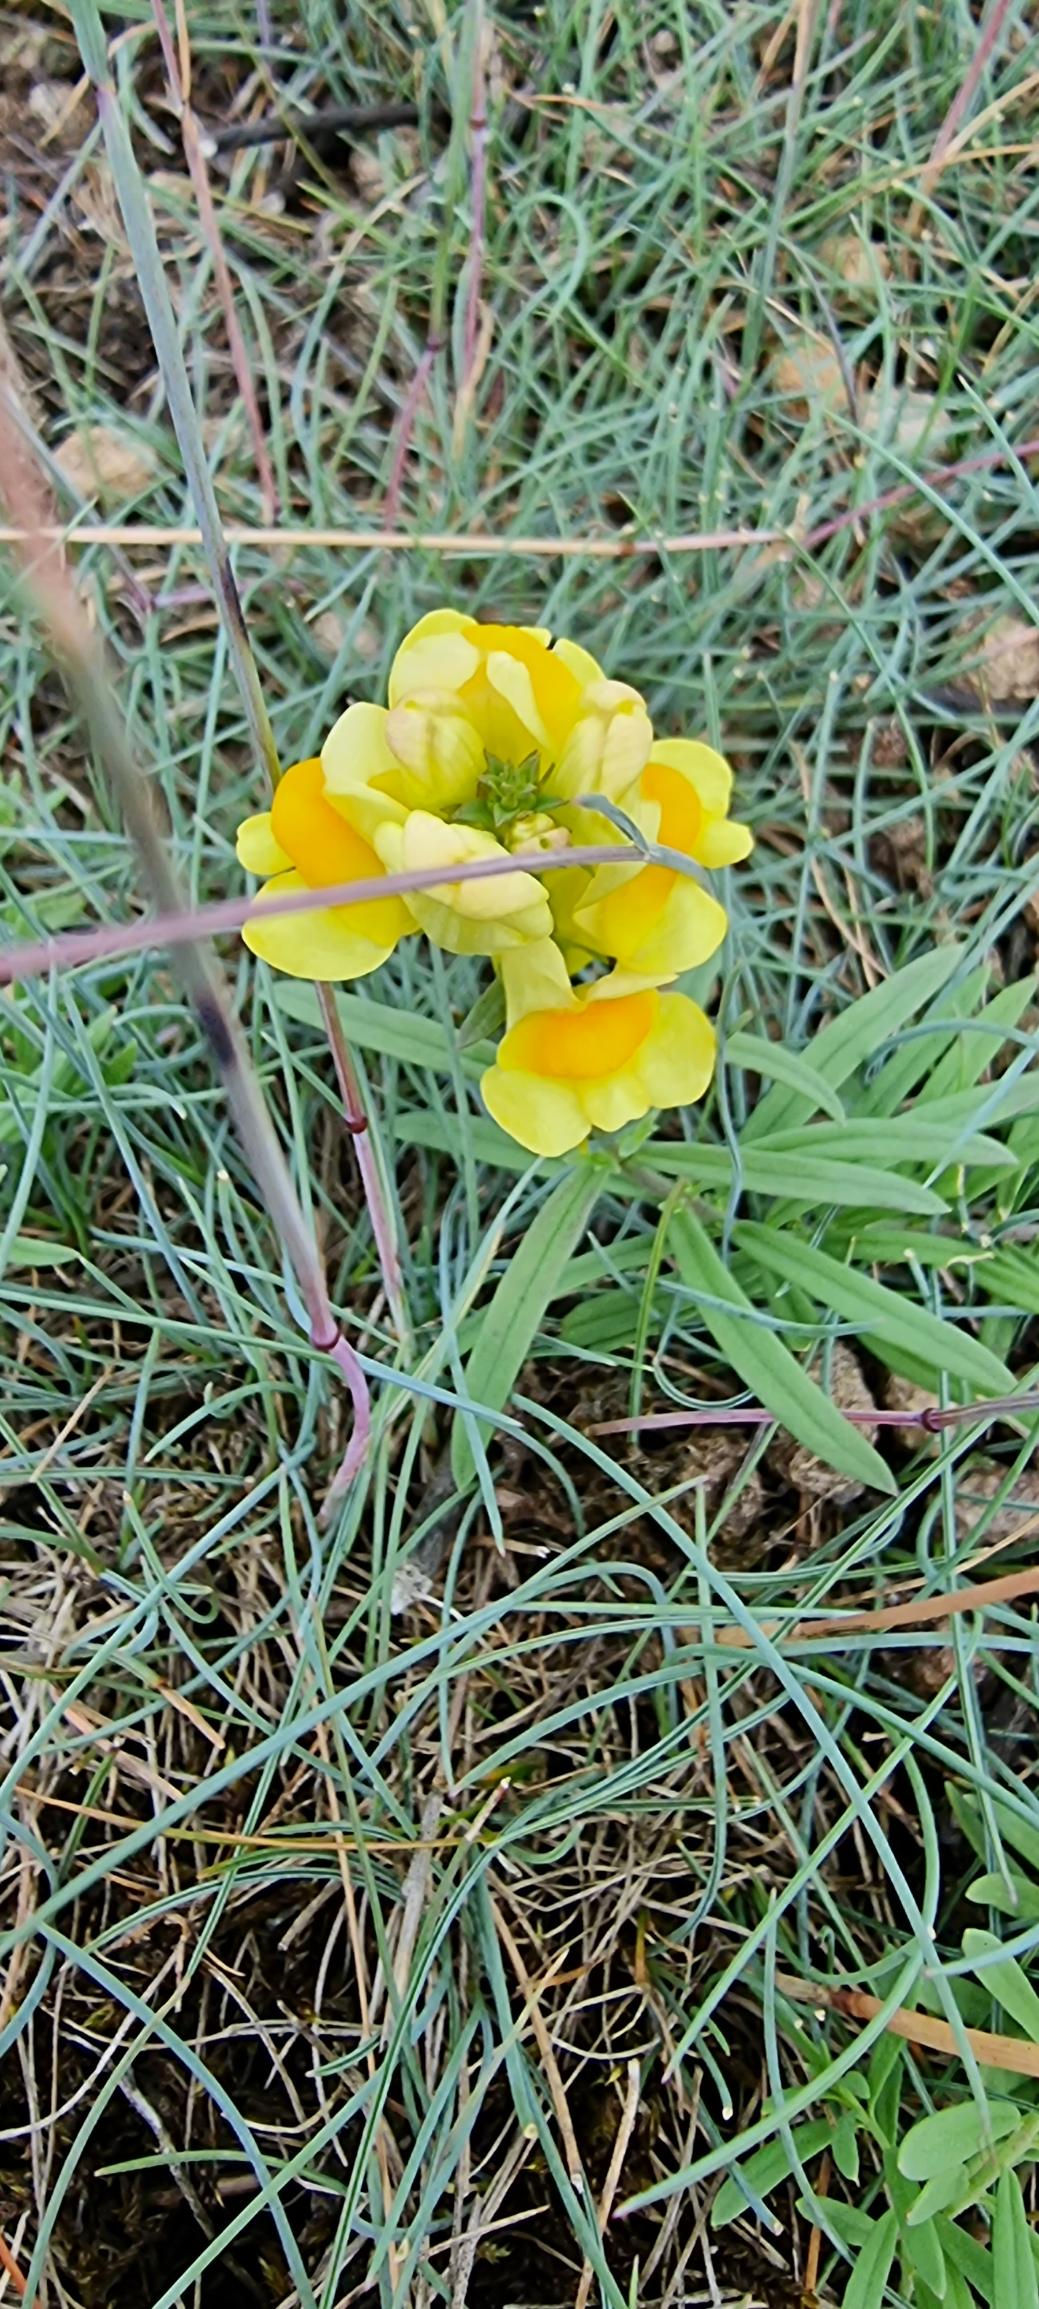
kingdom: Plantae
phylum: Tracheophyta
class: Magnoliopsida
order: Lamiales
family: Plantaginaceae
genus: Linaria
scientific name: Linaria vulgaris
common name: Almindelig torskemund
